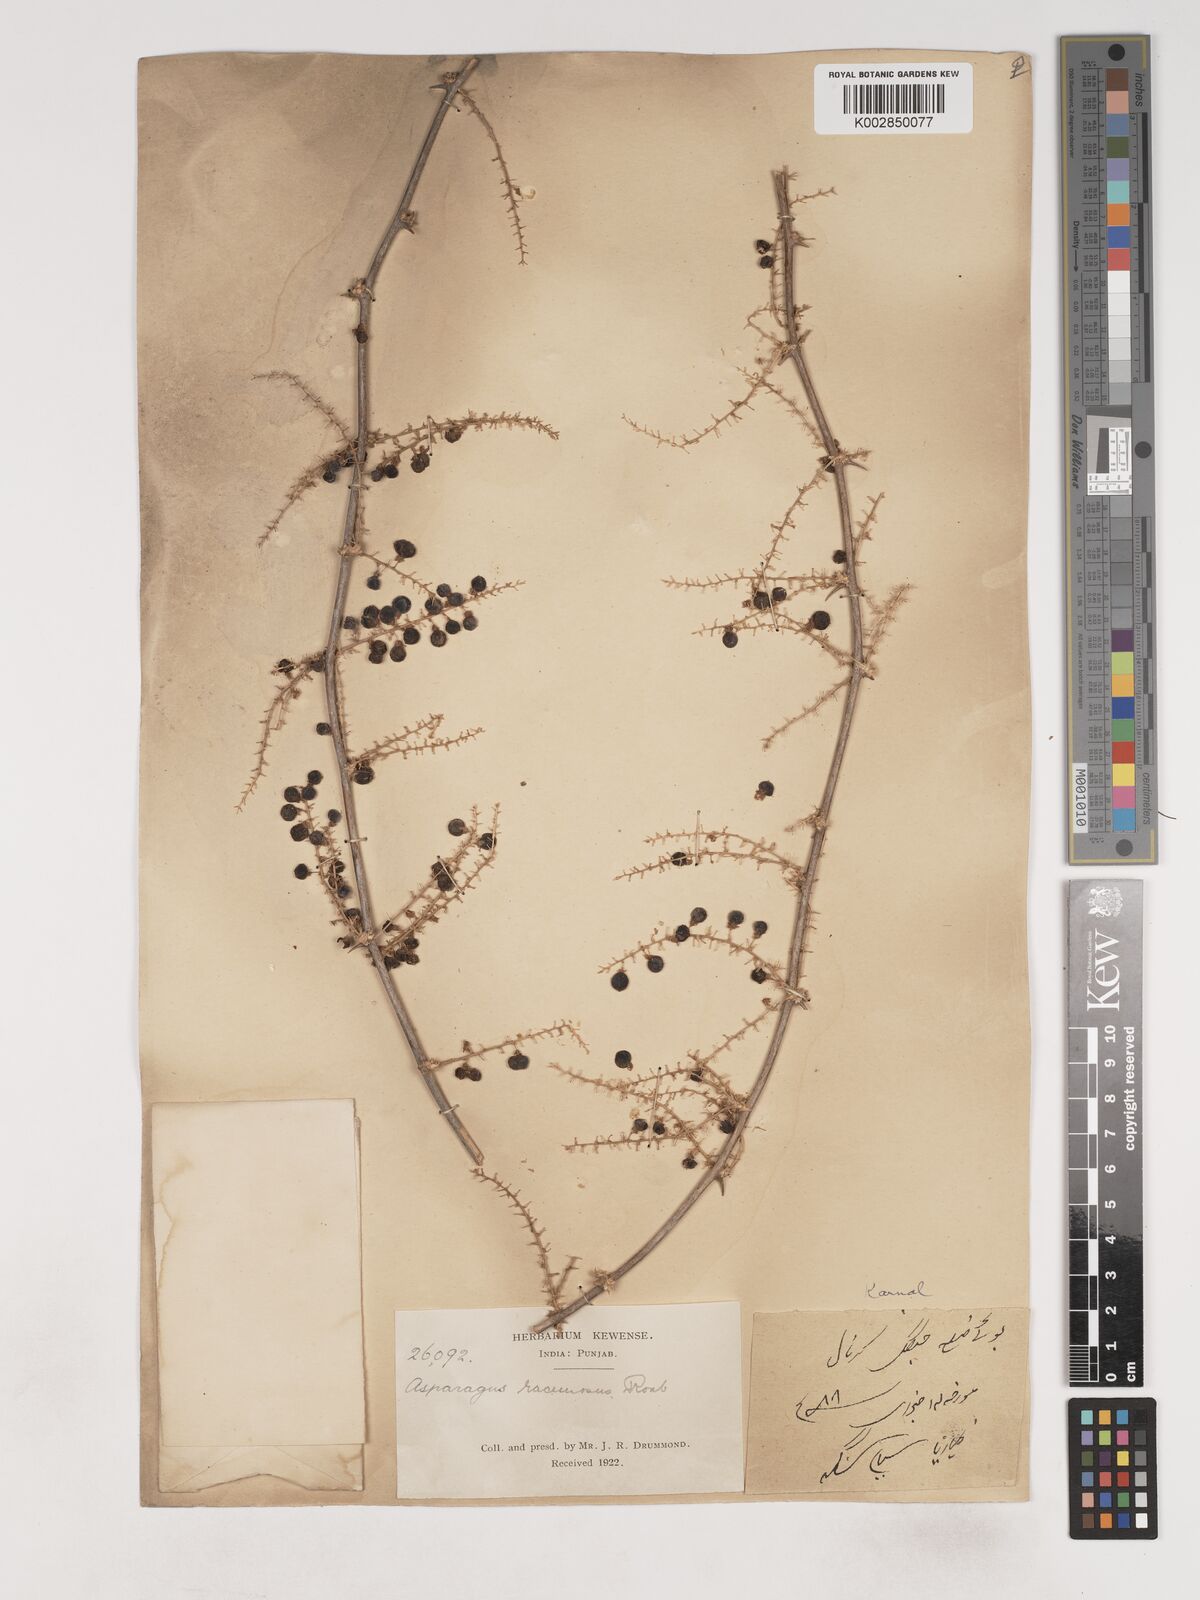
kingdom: Plantae
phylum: Tracheophyta
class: Liliopsida
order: Asparagales
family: Asparagaceae
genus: Asparagus
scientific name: Asparagus racemosus
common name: Asparagus-fern
